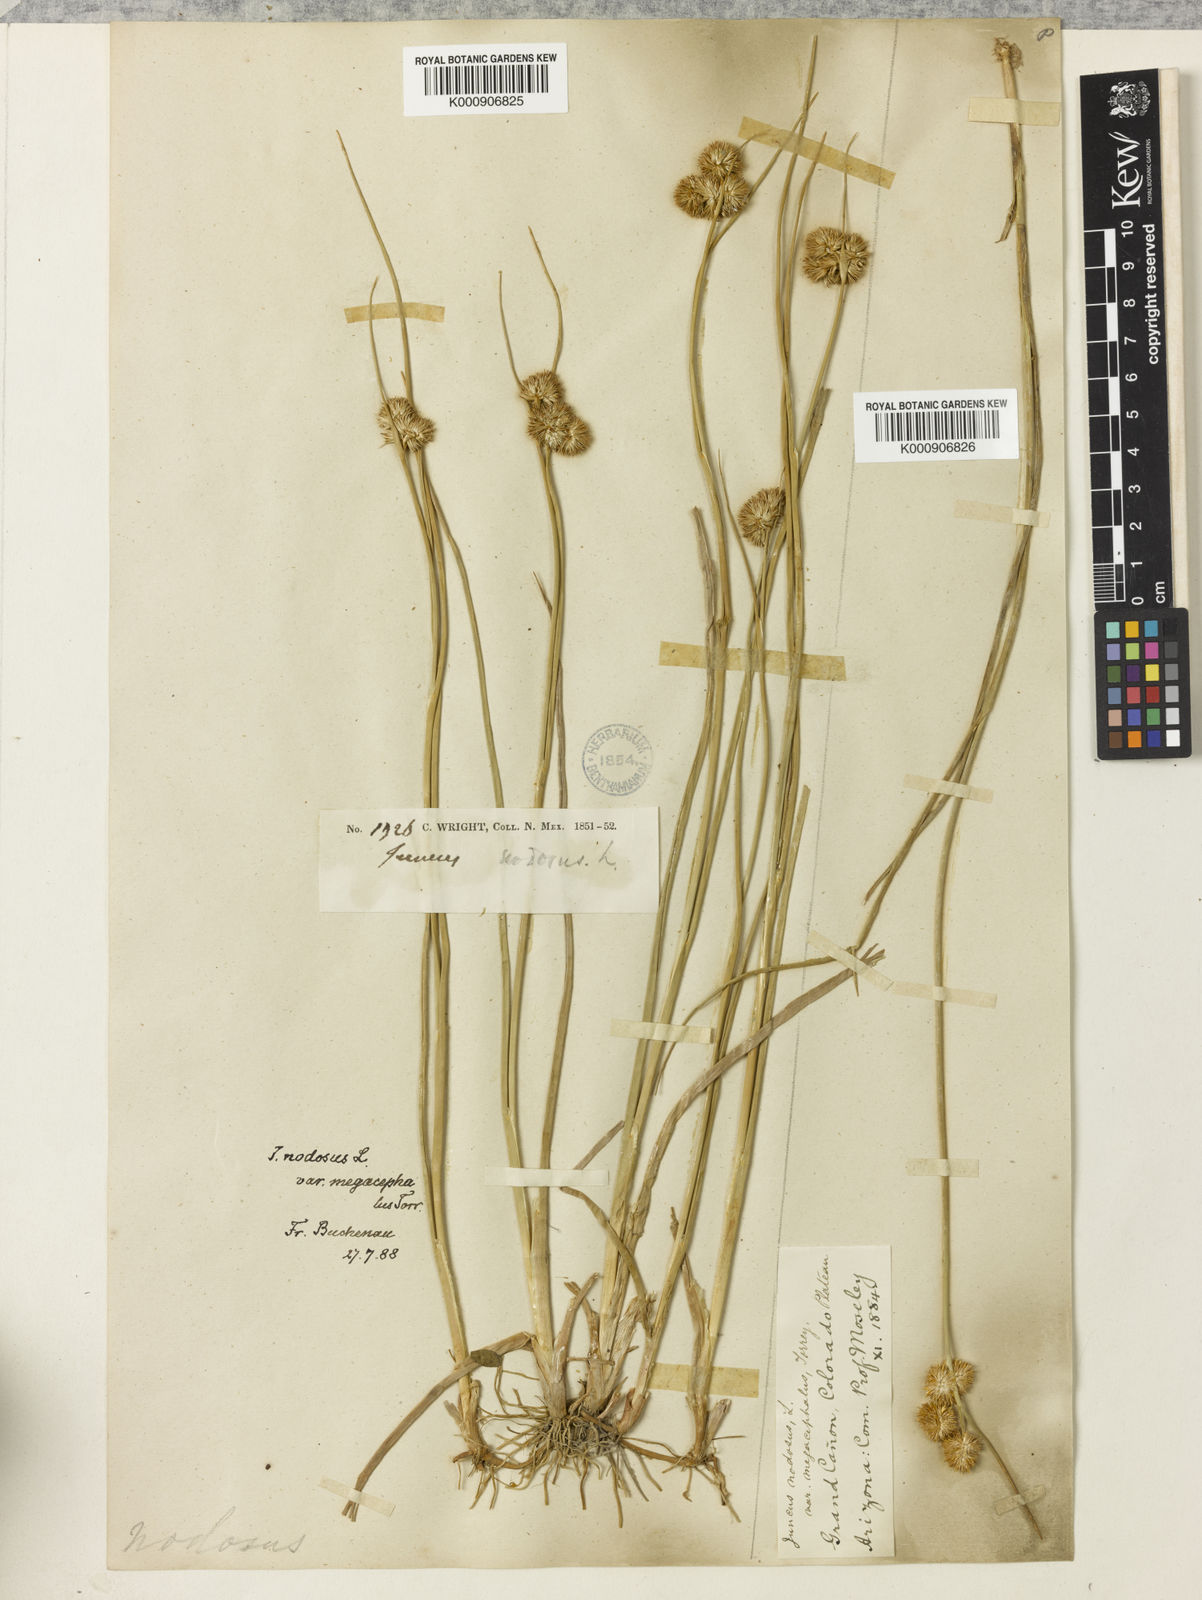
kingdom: Plantae
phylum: Tracheophyta
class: Liliopsida
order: Poales
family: Juncaceae
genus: Juncus
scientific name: Juncus nodosus
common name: Knotted rush
